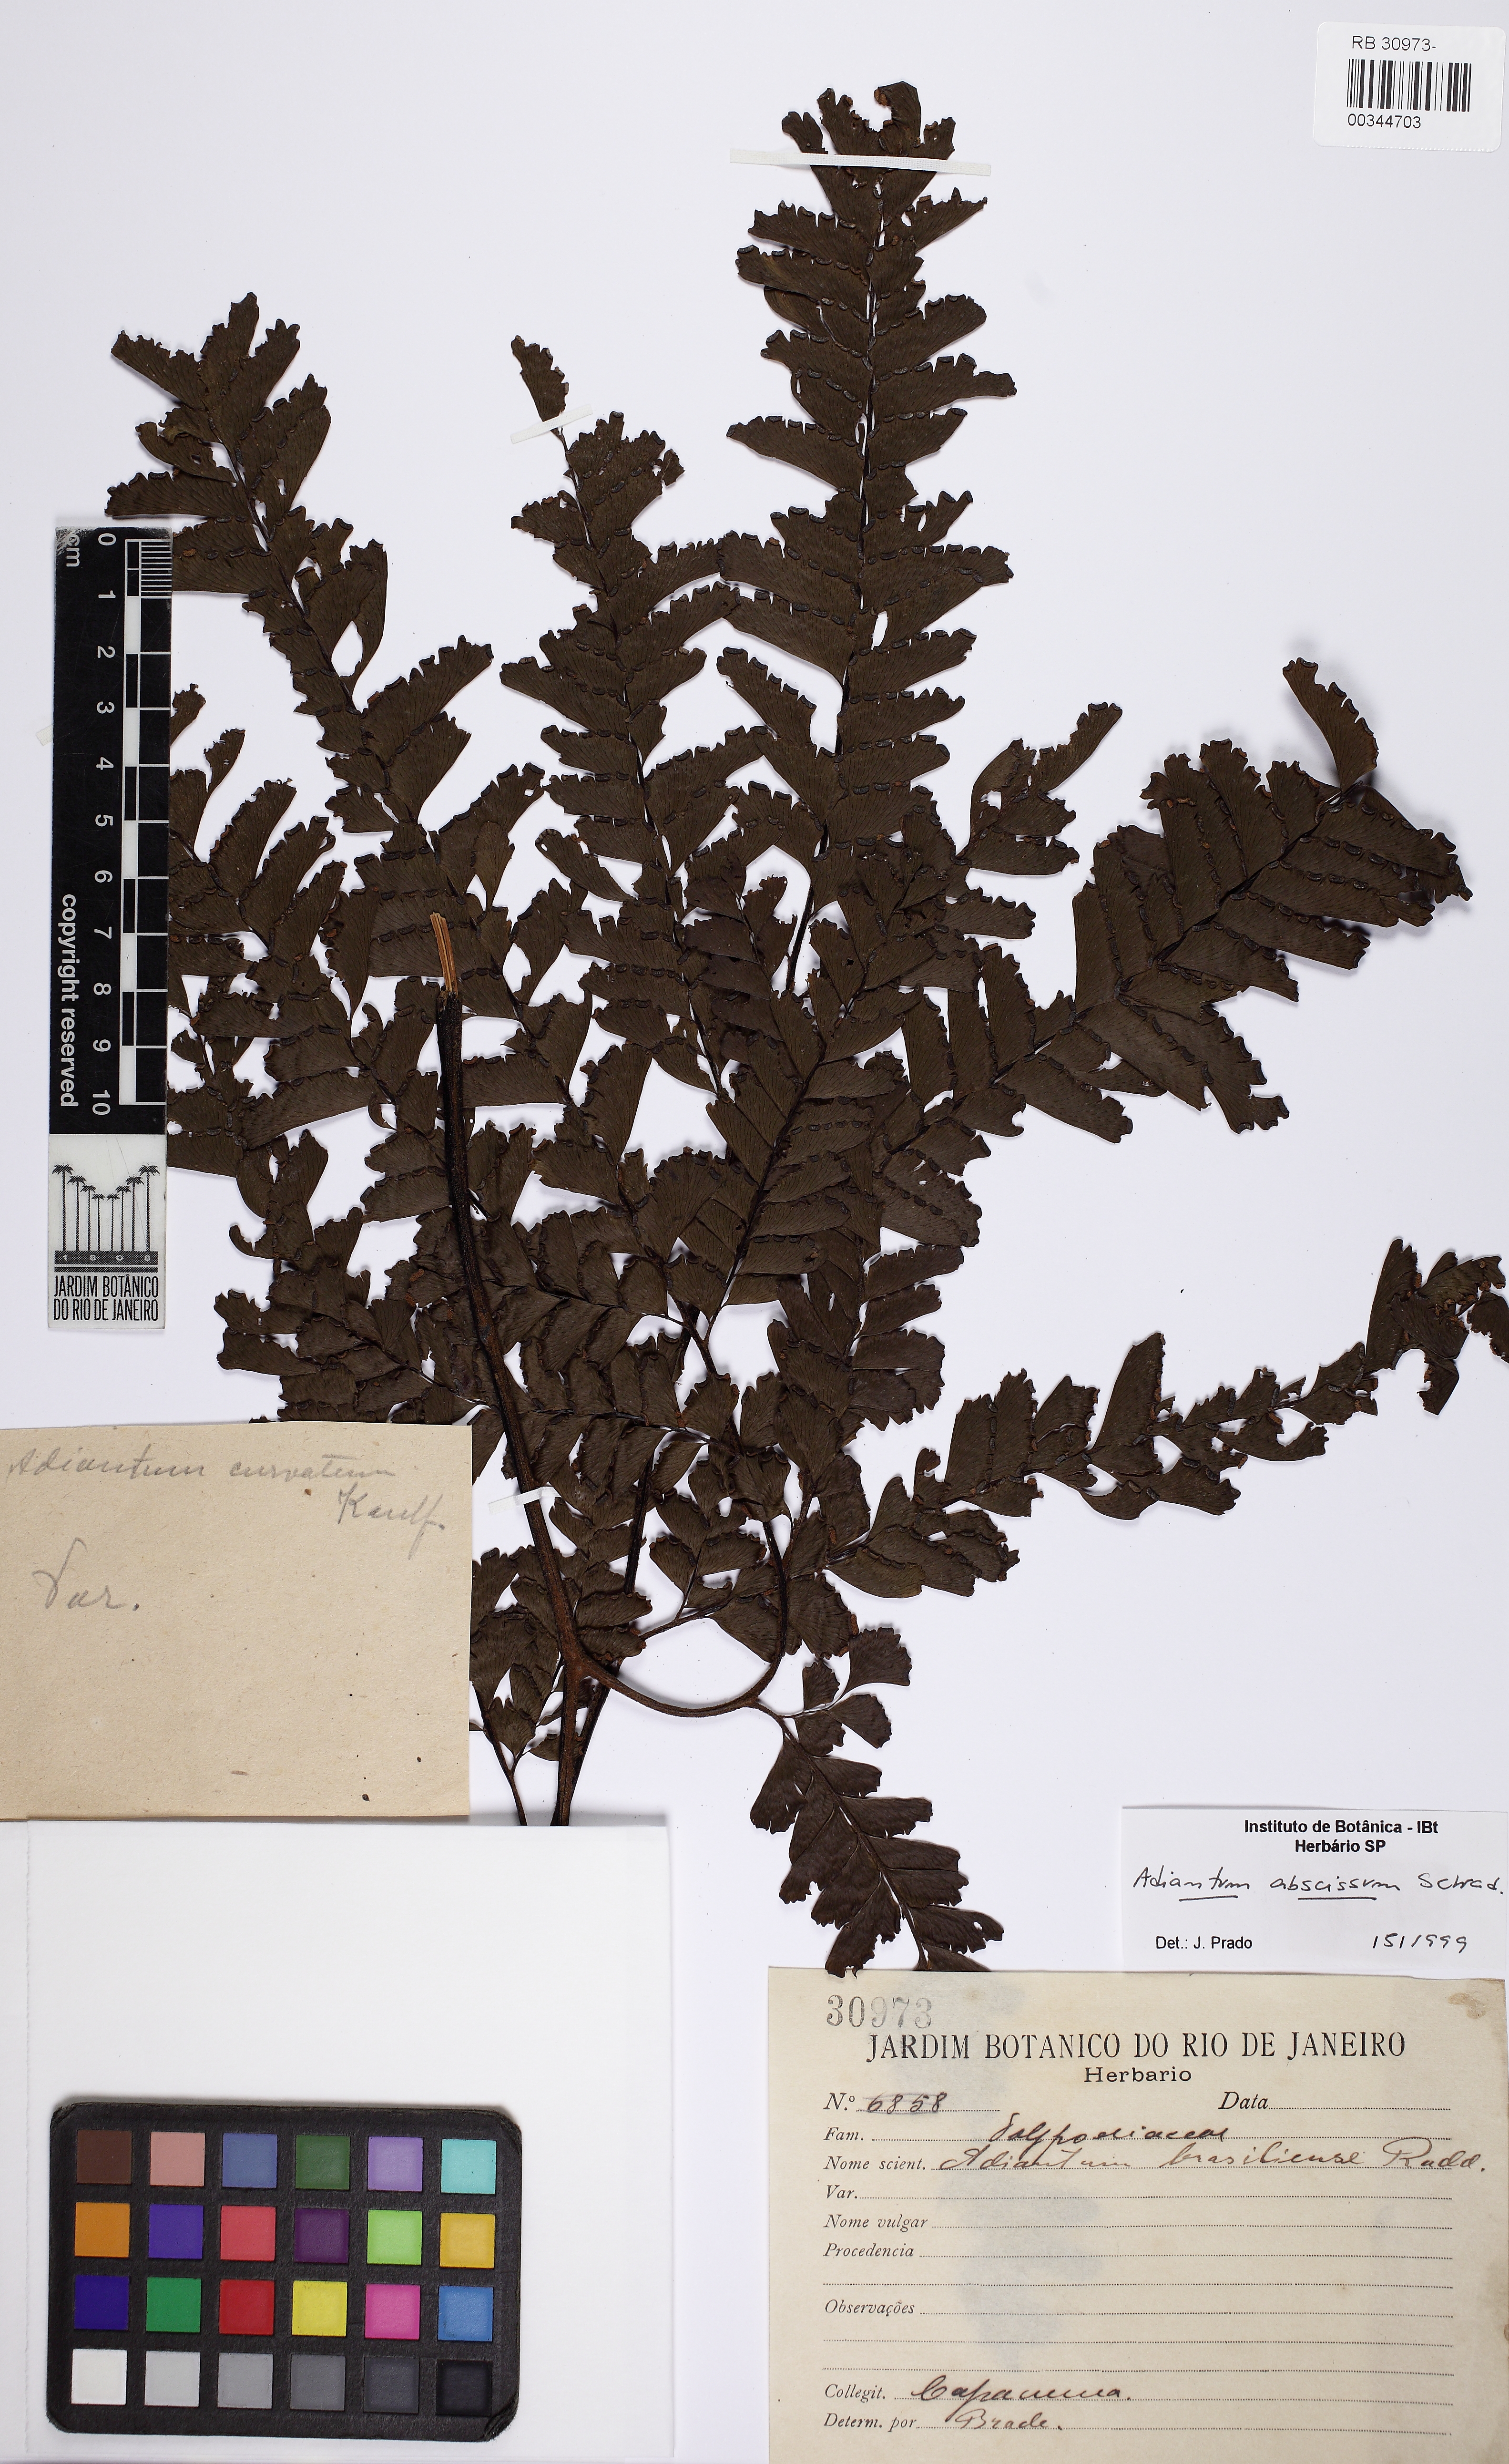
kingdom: Plantae
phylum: Tracheophyta
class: Polypodiopsida
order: Polypodiales
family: Pteridaceae
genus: Adiantum
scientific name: Adiantum abscissum
